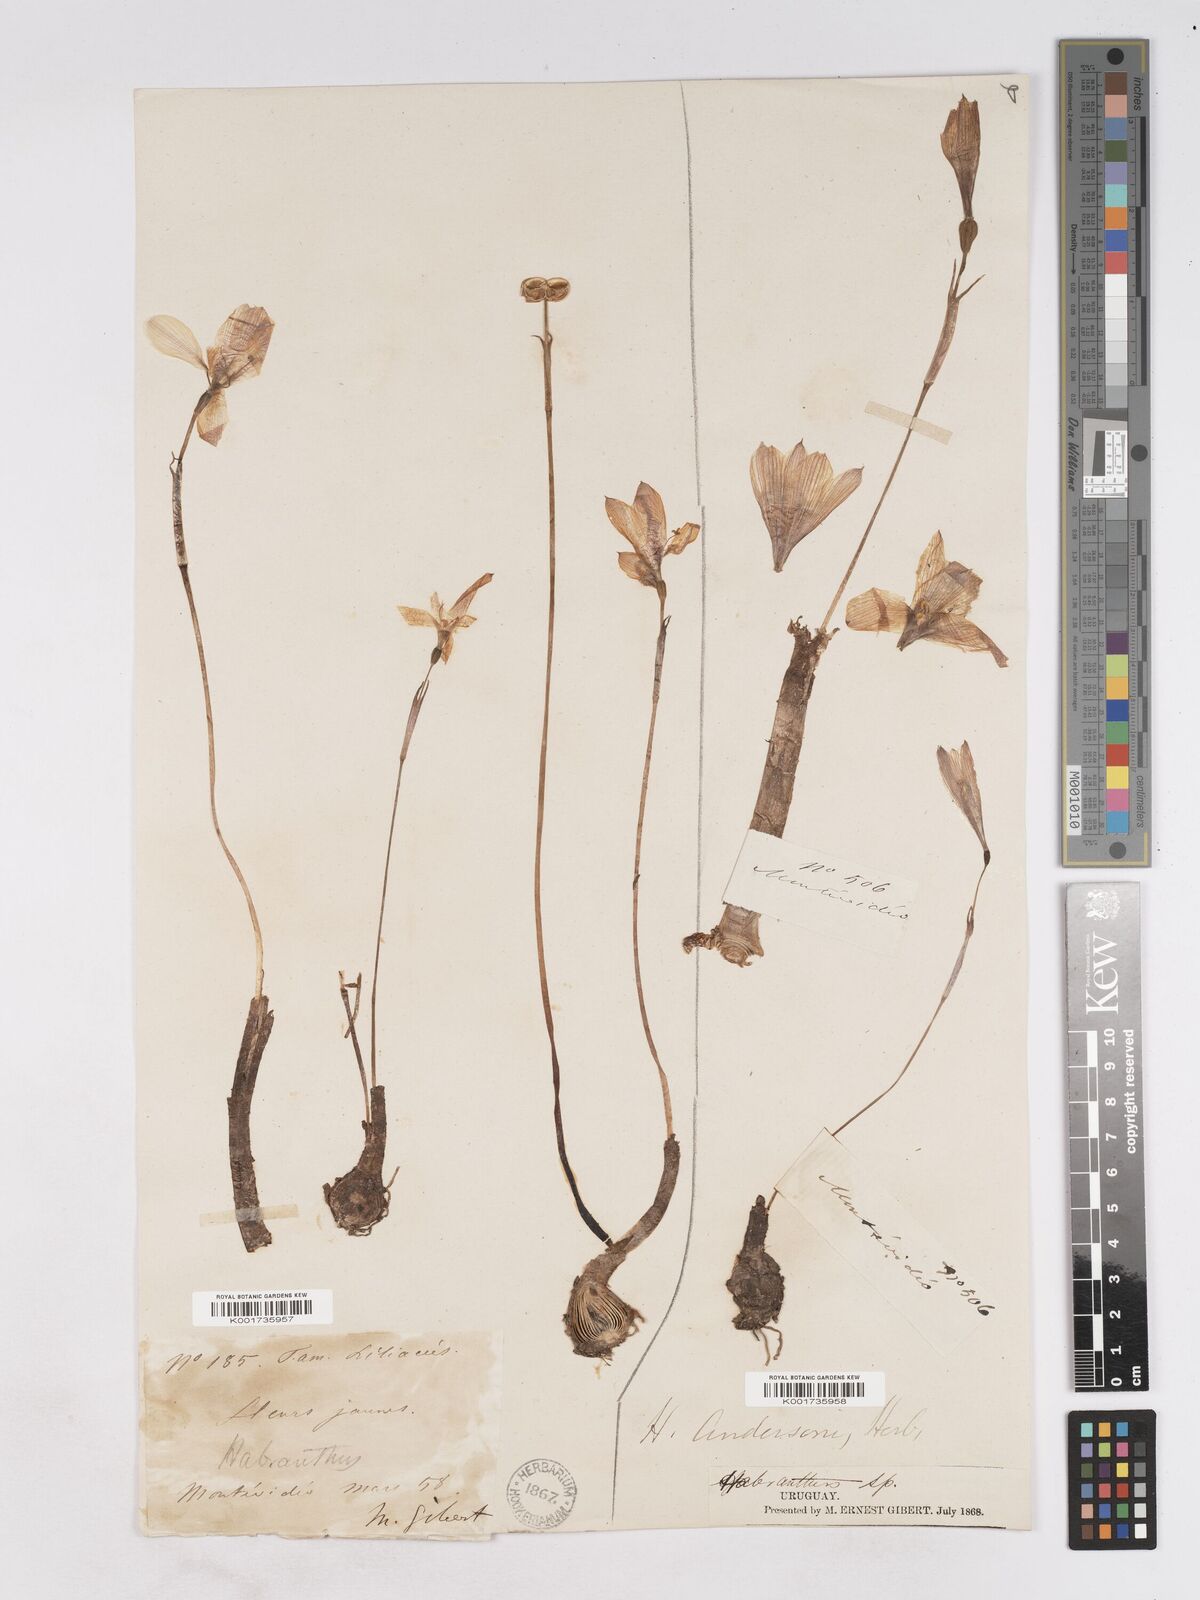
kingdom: Plantae
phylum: Tracheophyta
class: Liliopsida
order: Asparagales
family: Amaryllidaceae
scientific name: Amaryllidaceae
